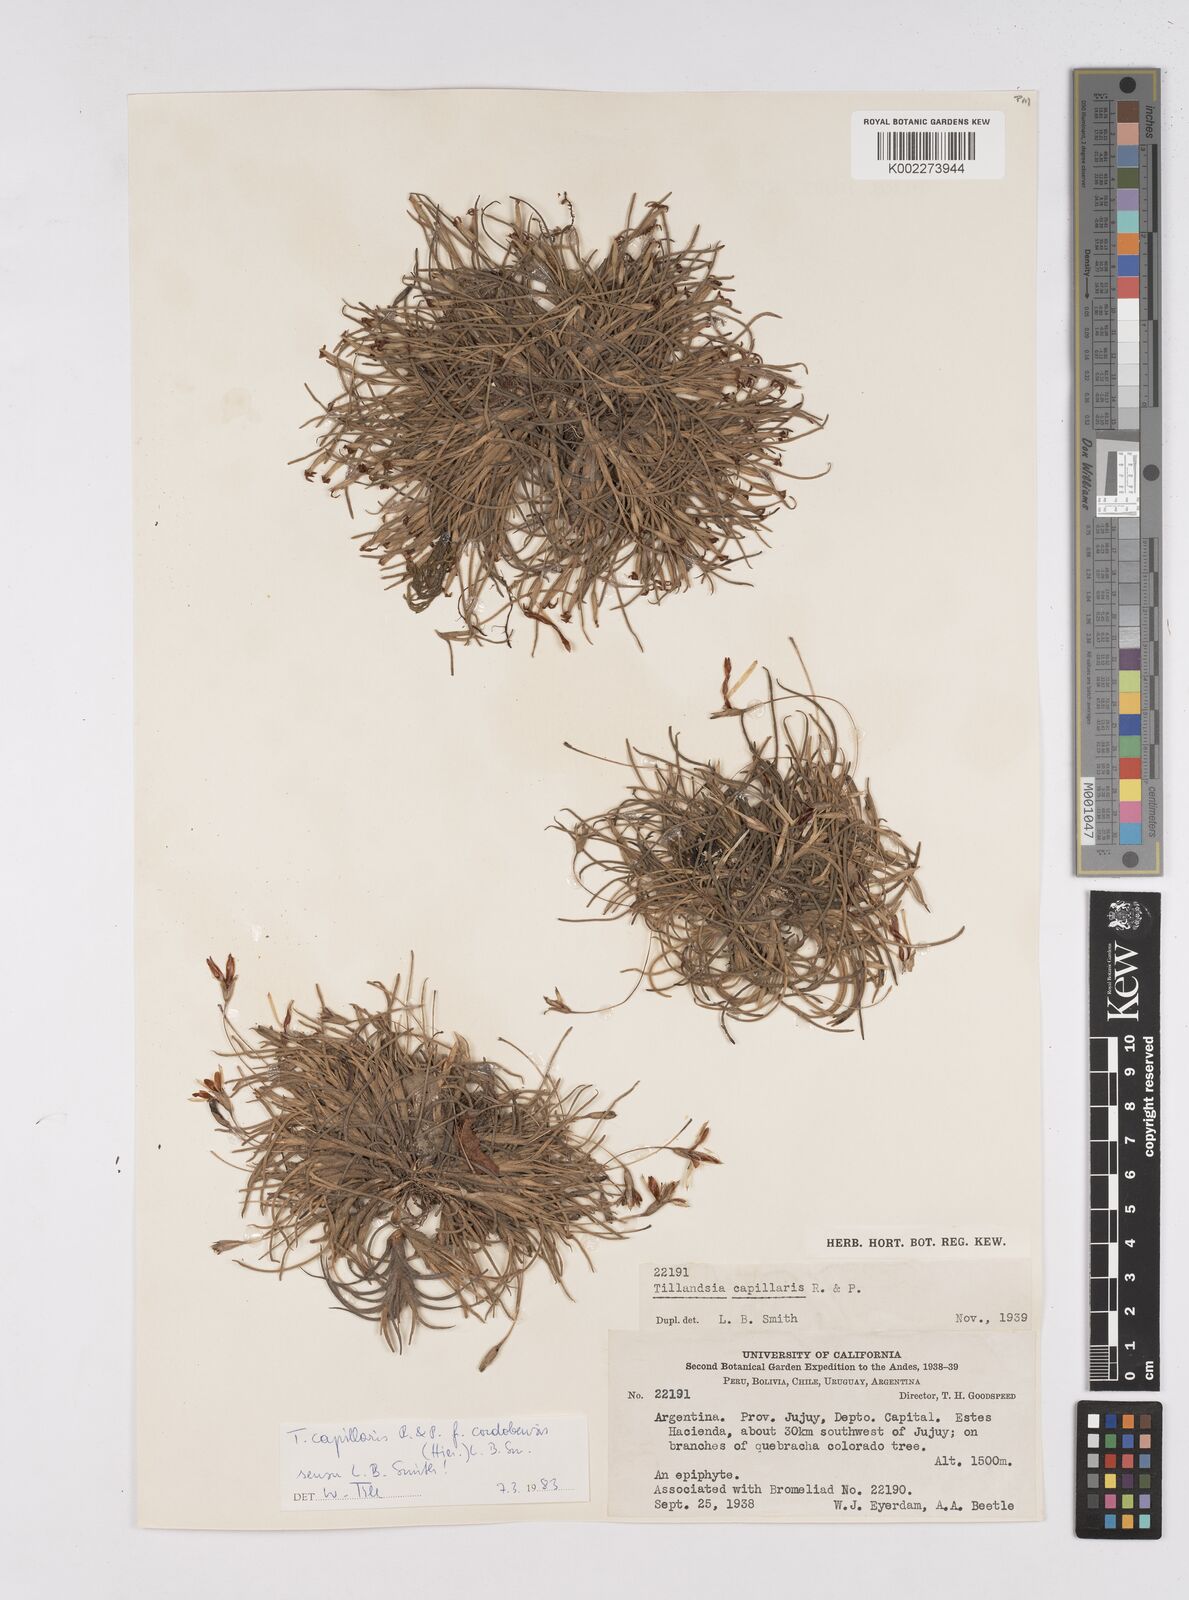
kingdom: Plantae
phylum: Tracheophyta
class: Liliopsida
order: Poales
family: Bromeliaceae
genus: Tillandsia
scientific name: Tillandsia virescens
